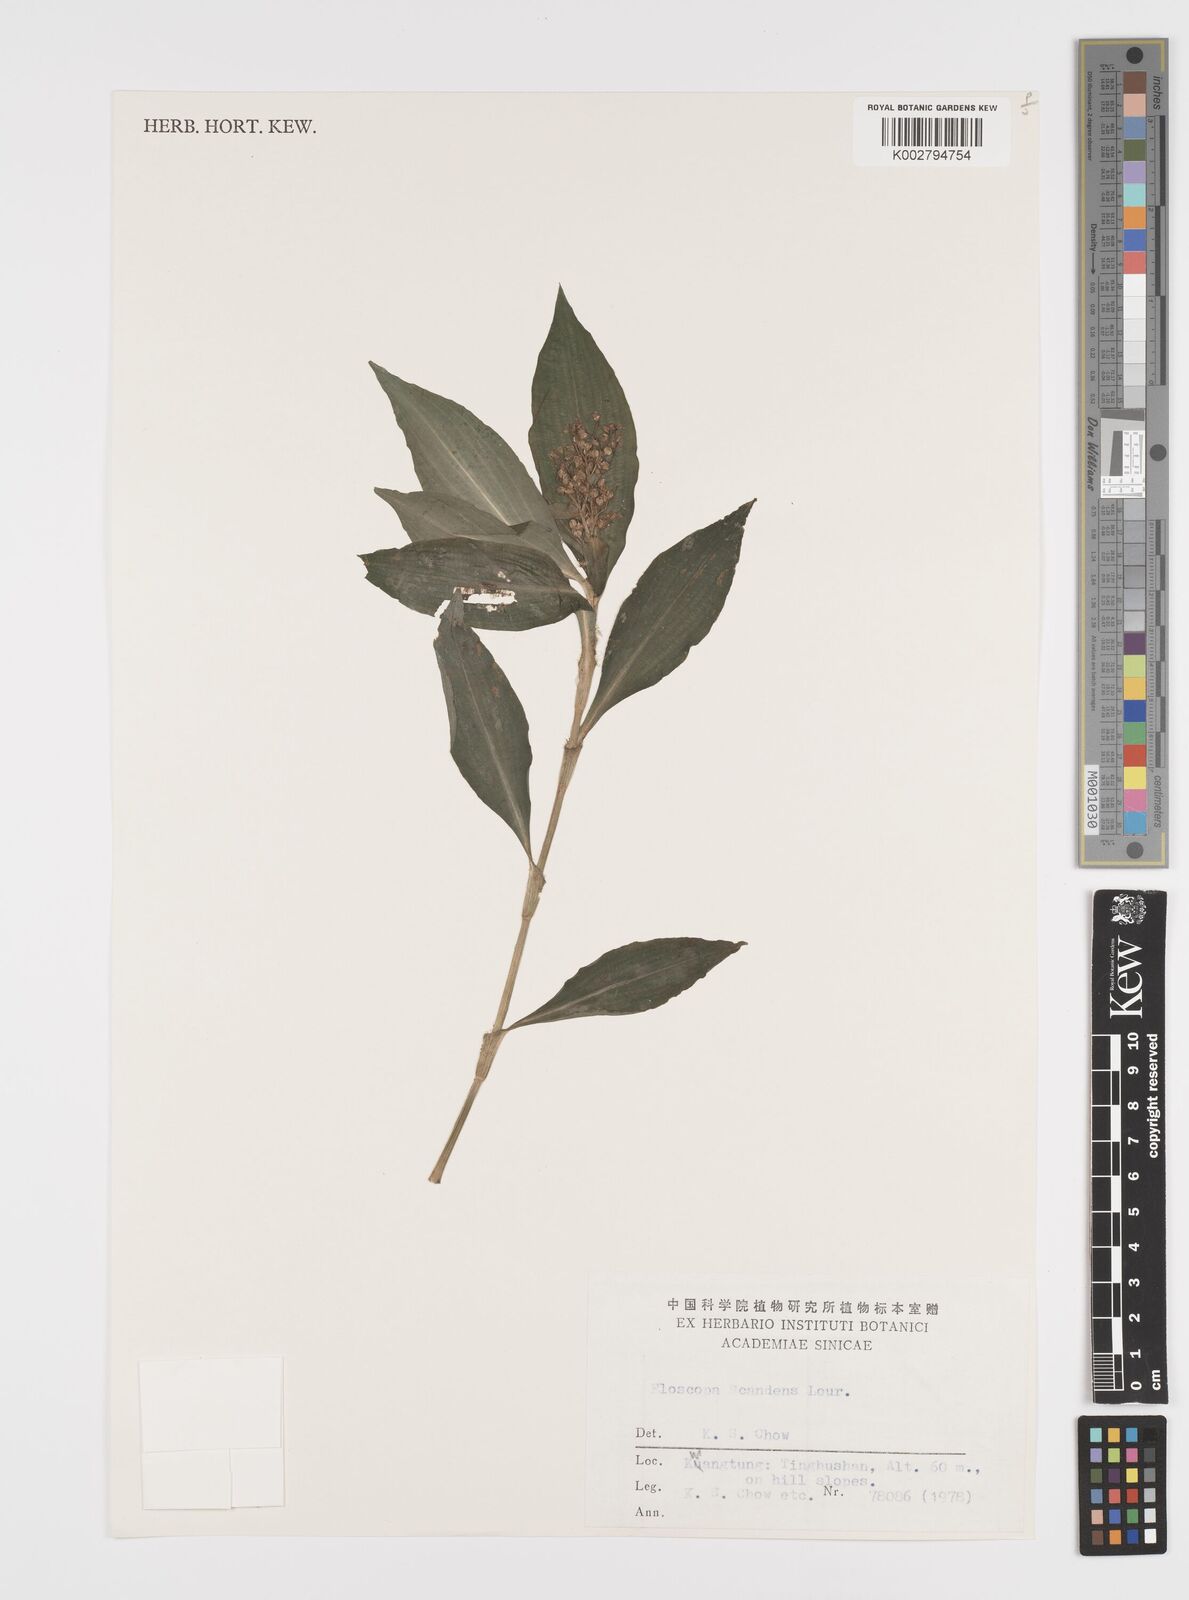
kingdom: Plantae
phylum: Tracheophyta
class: Liliopsida
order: Commelinales
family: Commelinaceae
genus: Floscopa
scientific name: Floscopa scandens
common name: Climbing flower cup
